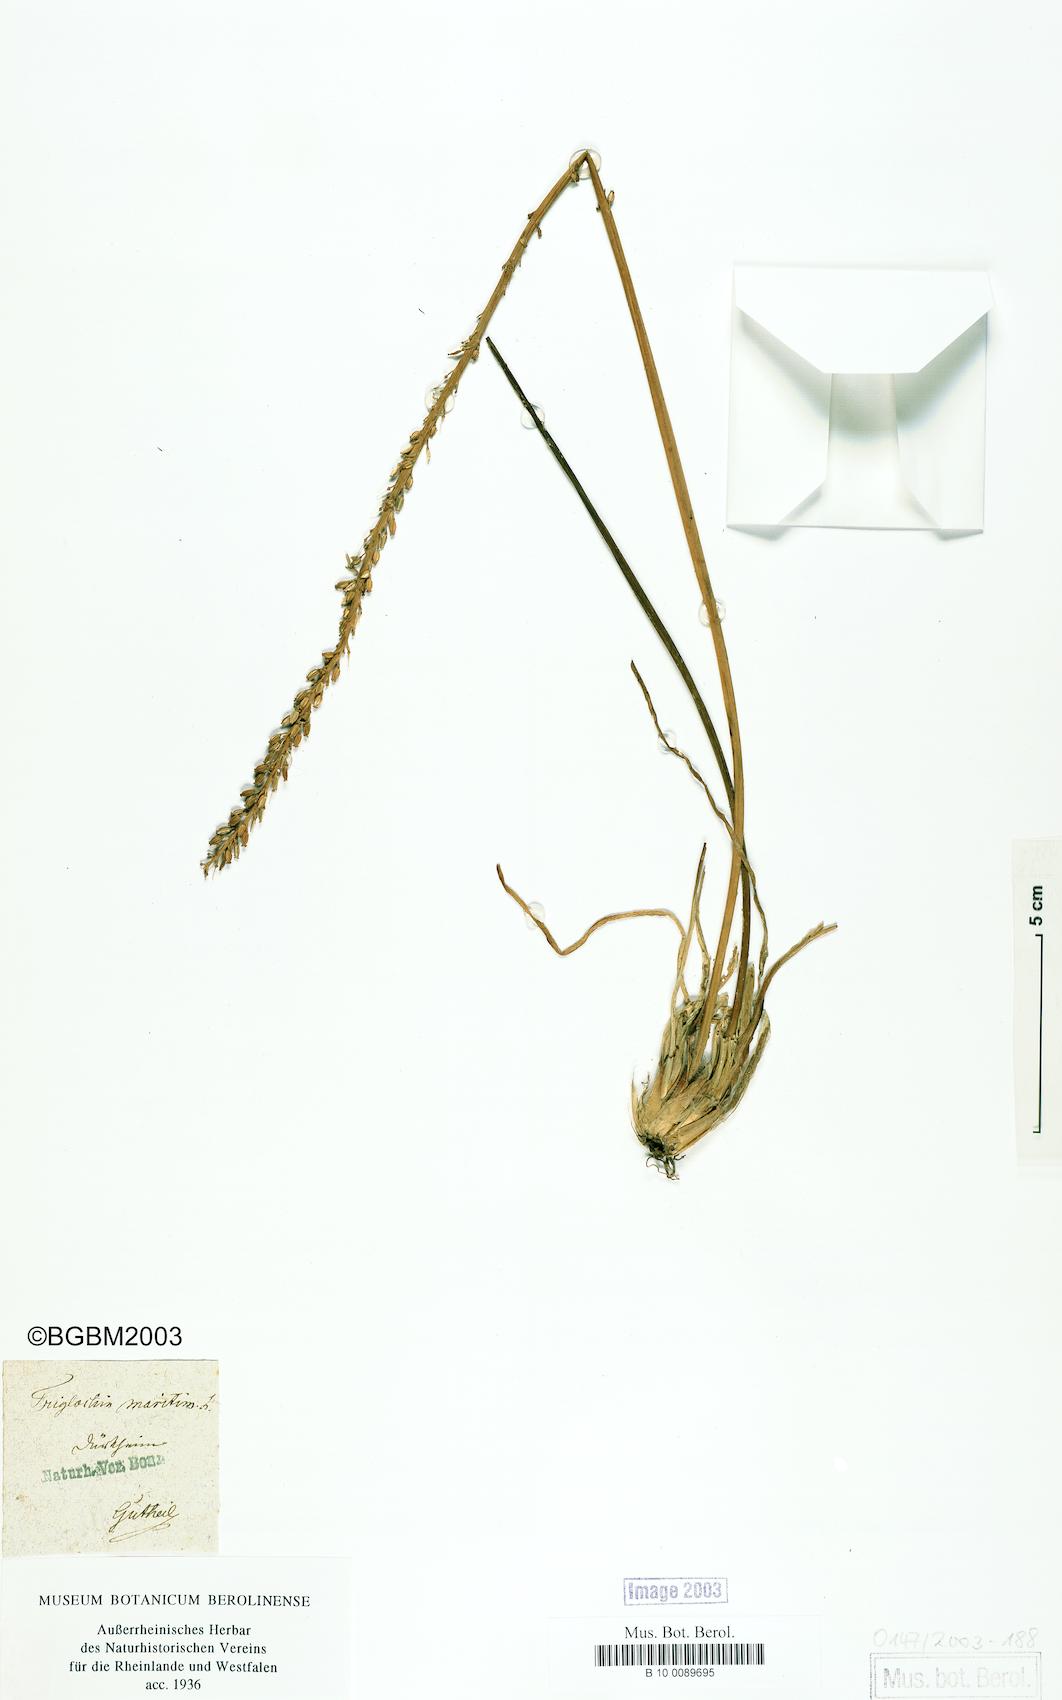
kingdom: Plantae
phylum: Tracheophyta
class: Liliopsida
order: Alismatales
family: Juncaginaceae
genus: Triglochin
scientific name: Triglochin maritima
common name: Sea arrowgrass
